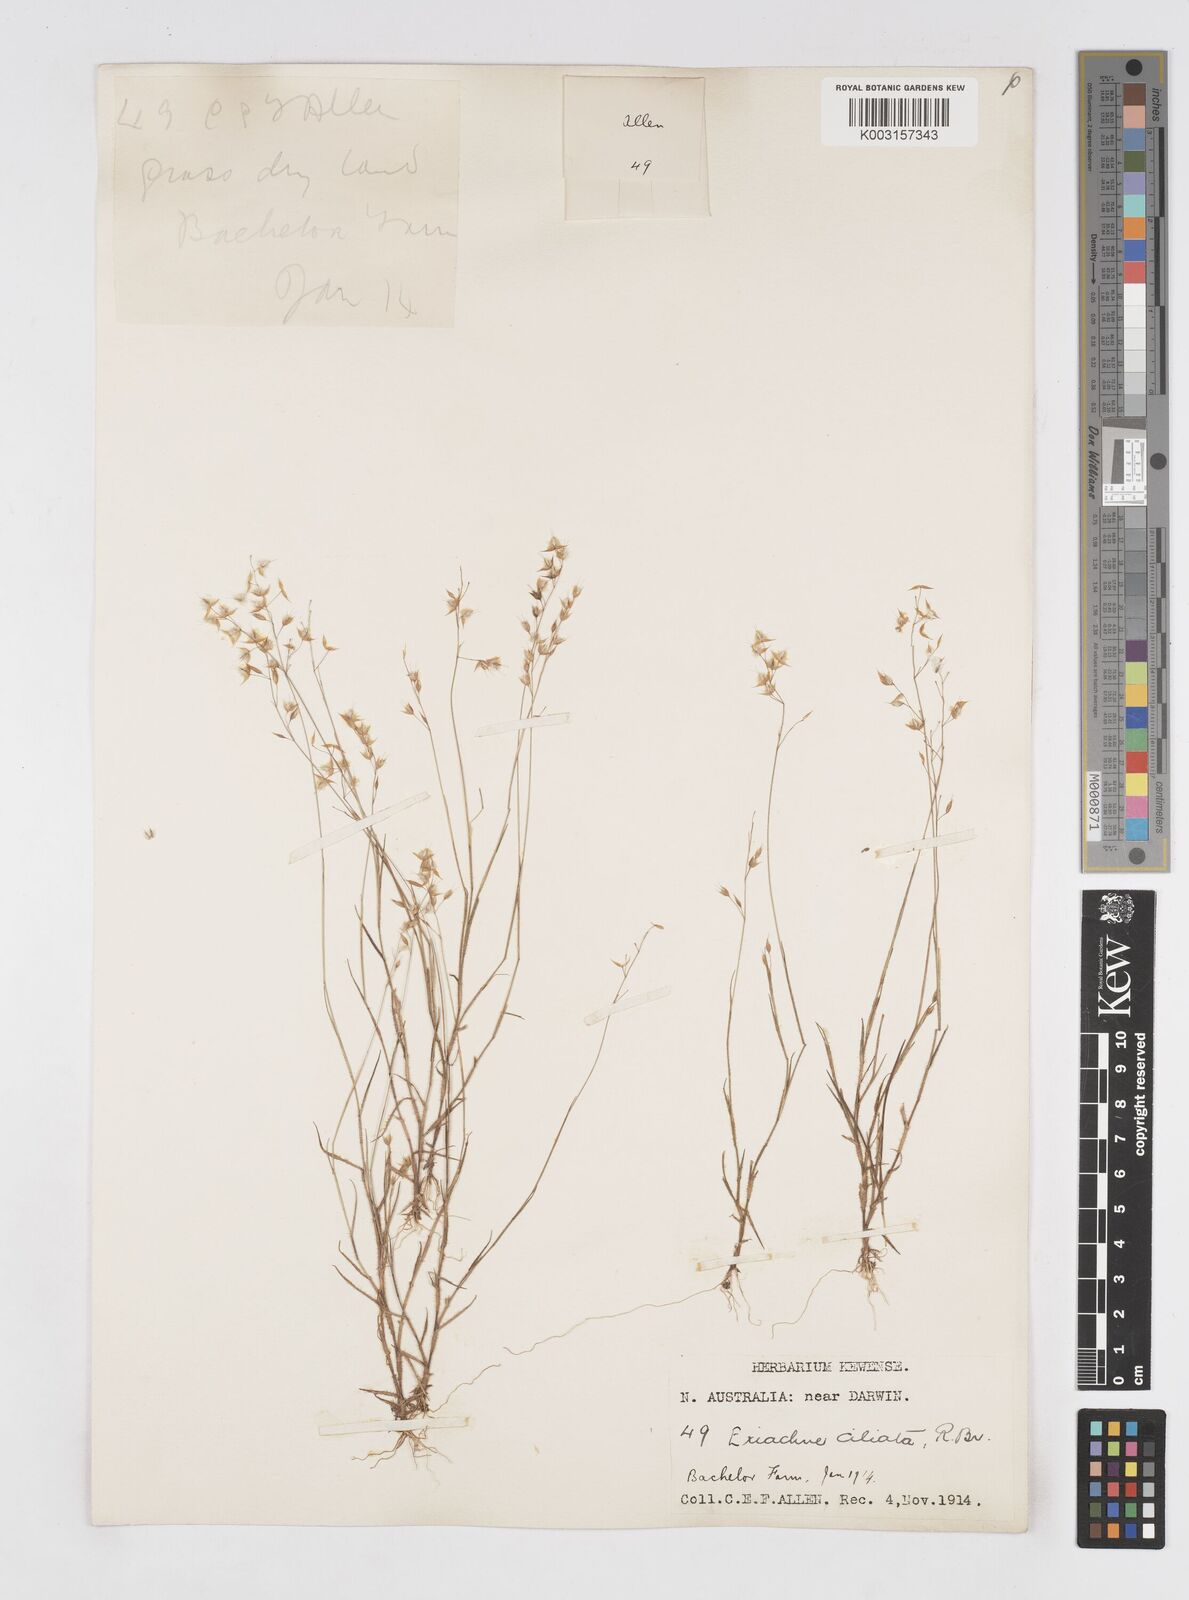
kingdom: Plantae
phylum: Tracheophyta
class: Liliopsida
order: Poales
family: Poaceae
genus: Eriachne
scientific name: Eriachne ciliata
